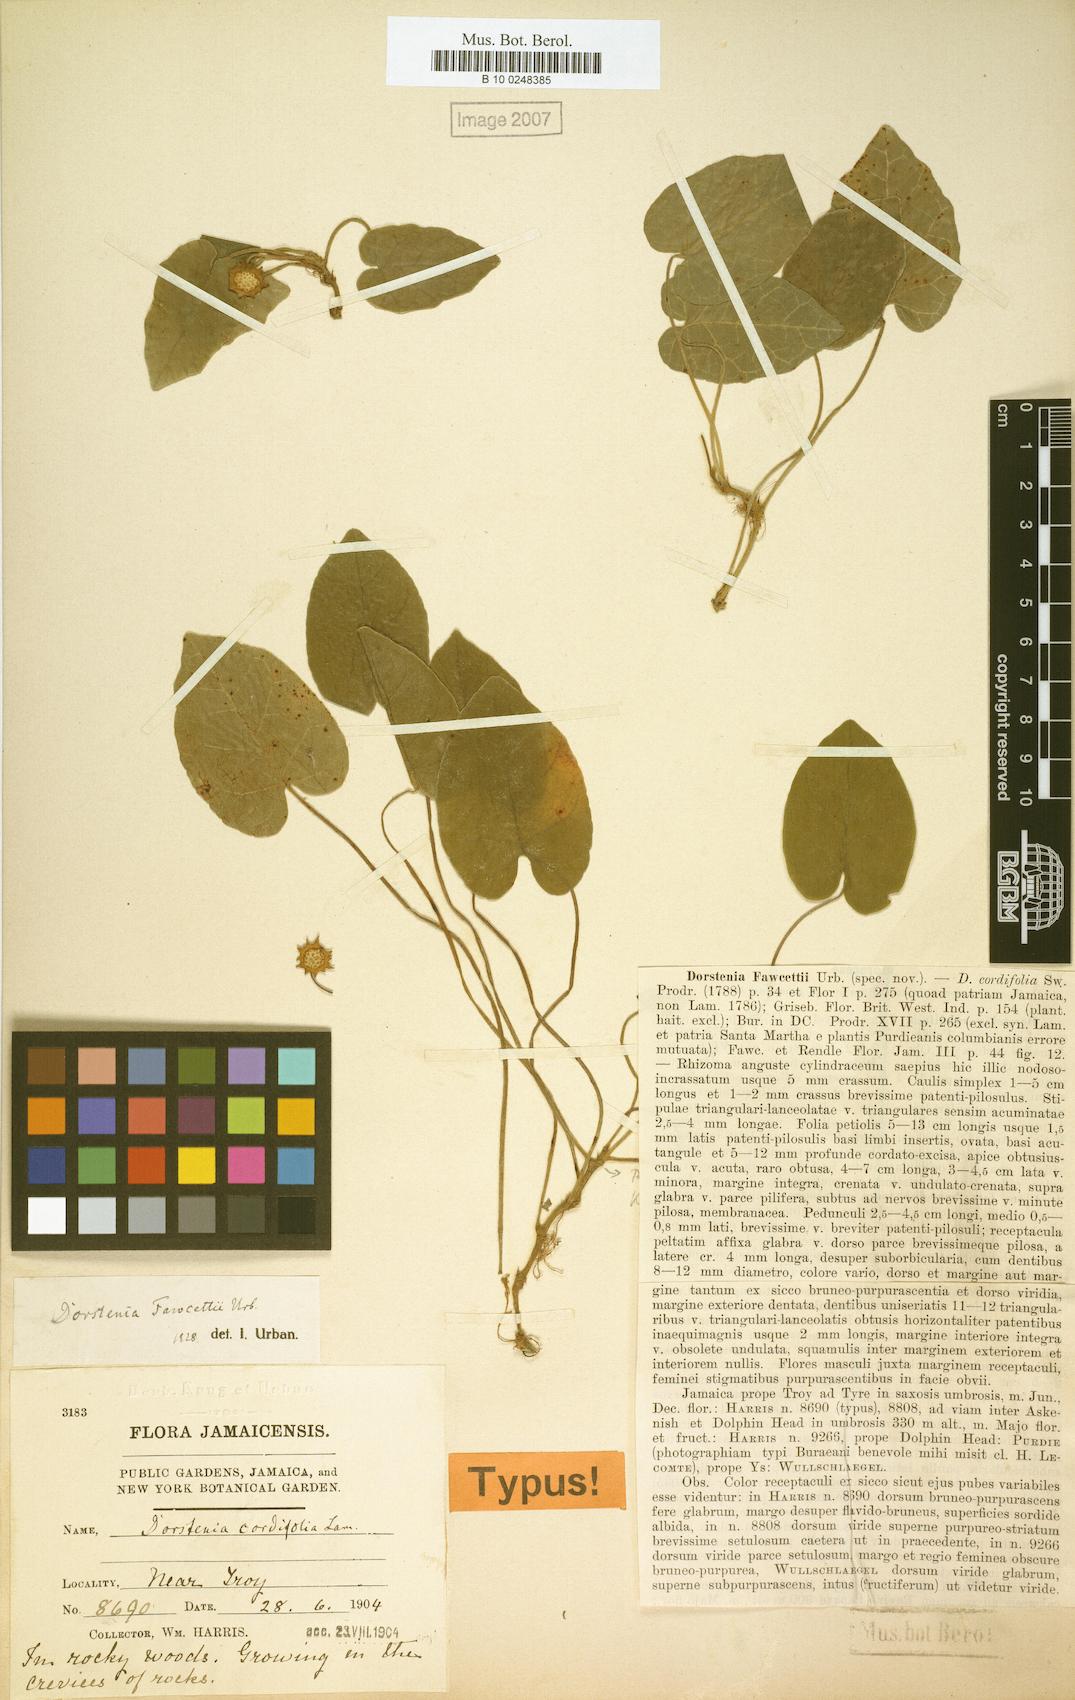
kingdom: Plantae
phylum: Tracheophyta
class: Magnoliopsida
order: Rosales
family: Moraceae
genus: Dorstenia
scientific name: Dorstenia fawcettii
